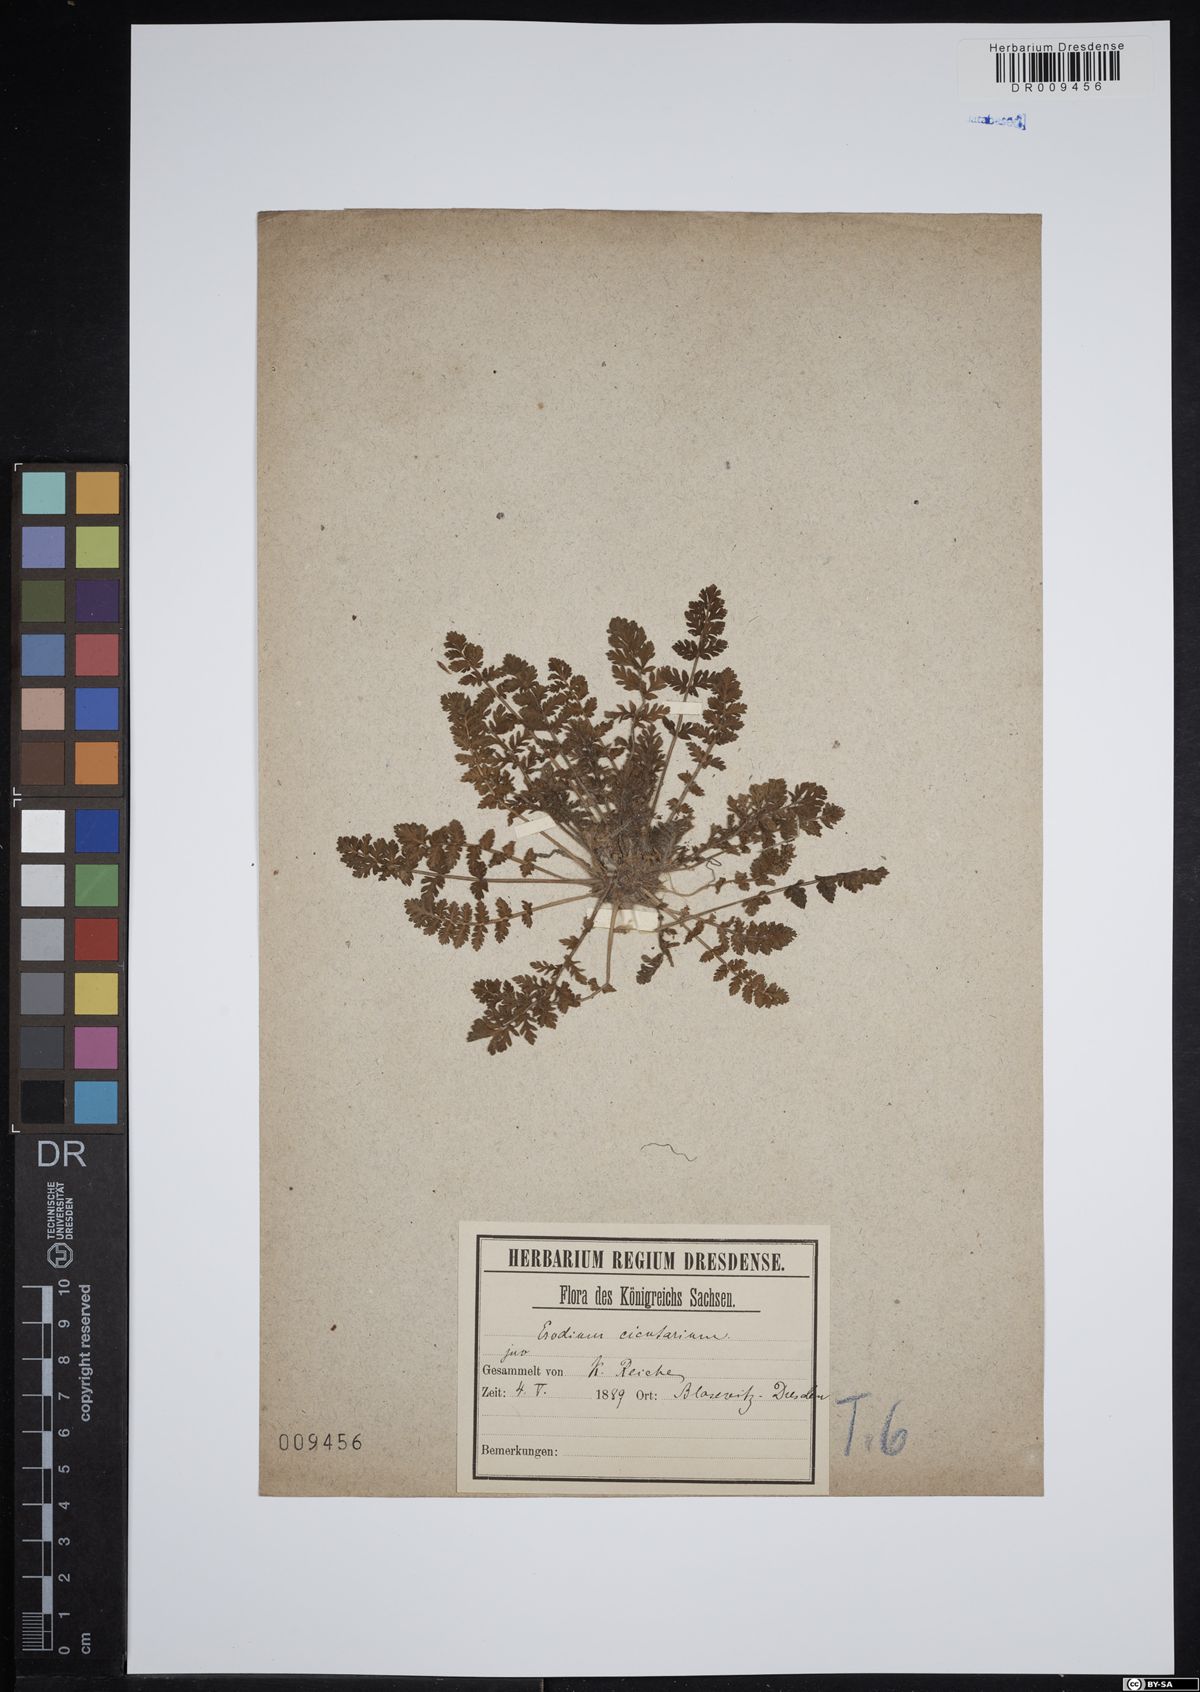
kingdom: Plantae
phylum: Tracheophyta
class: Magnoliopsida
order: Geraniales
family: Geraniaceae
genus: Erodium
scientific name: Erodium cicutarium
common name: Common stork's-bill
